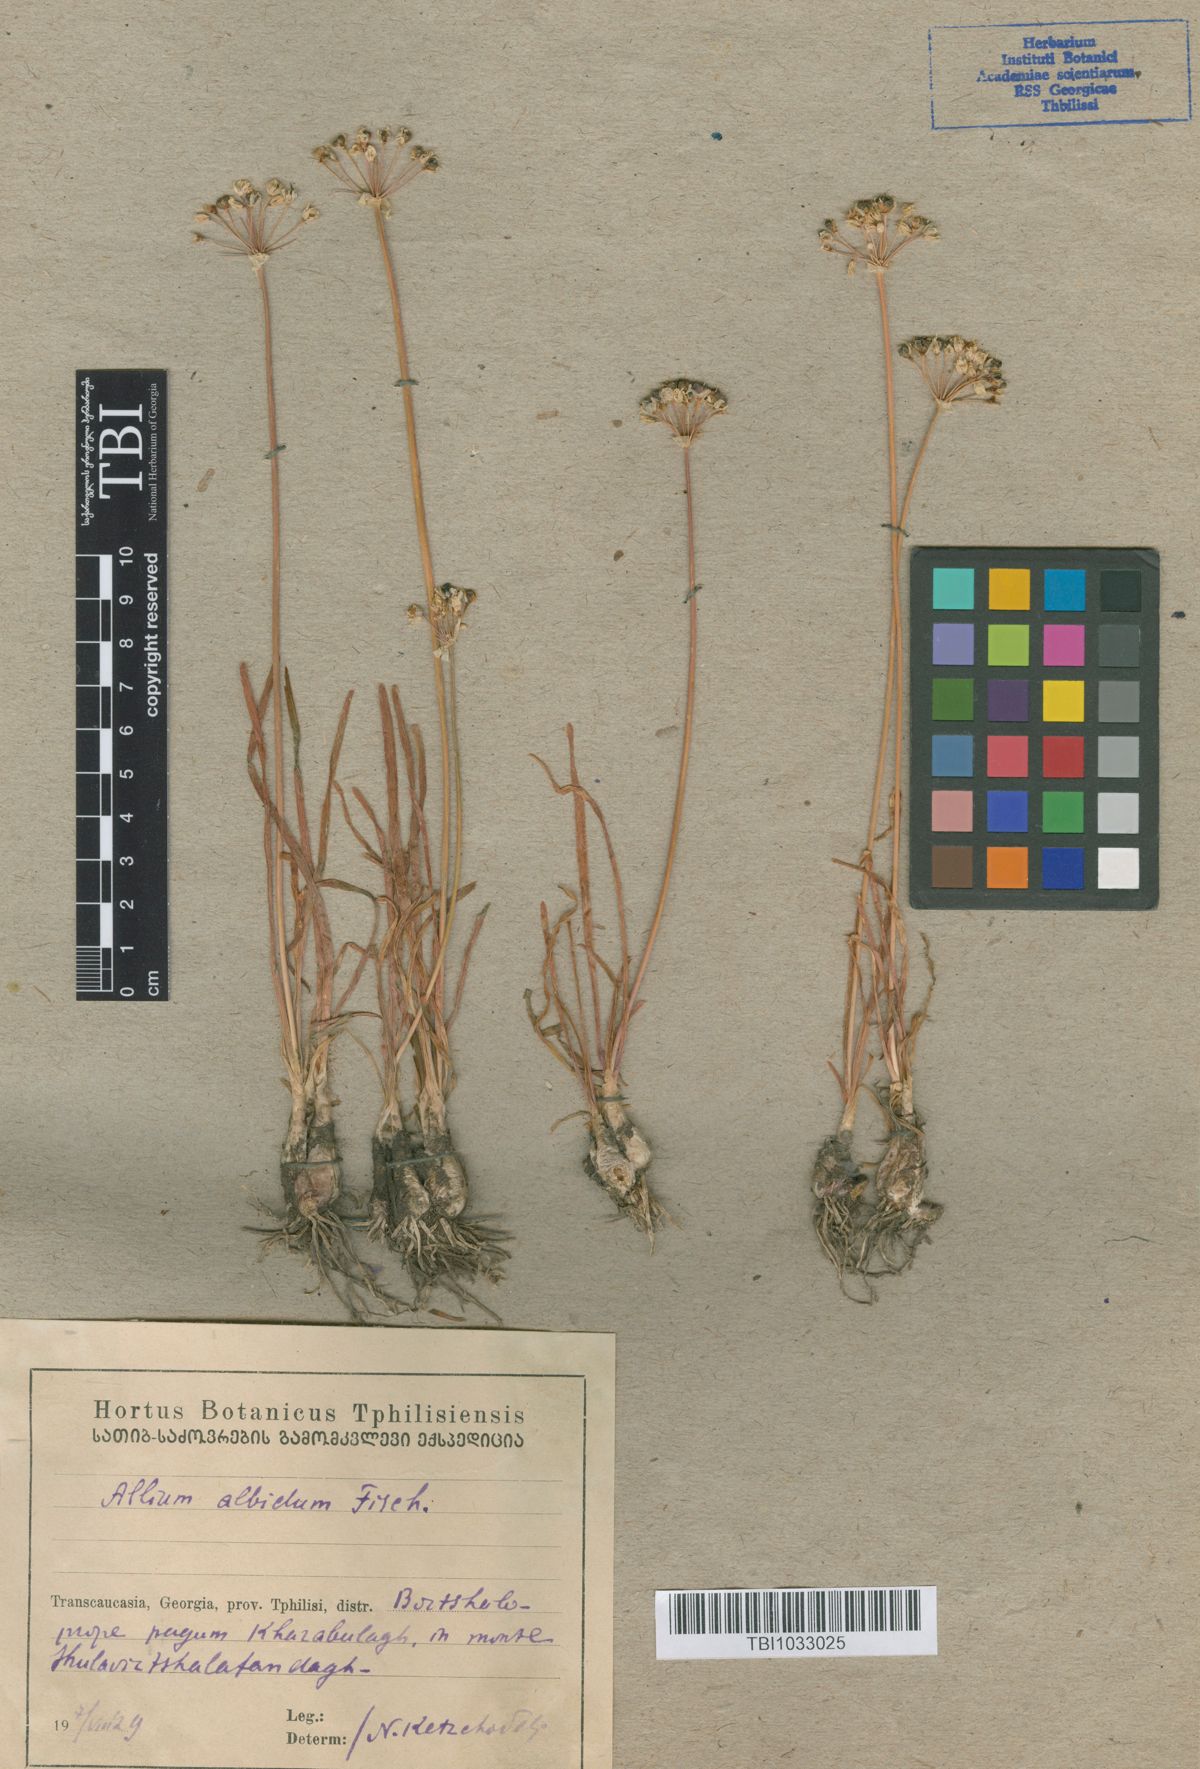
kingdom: Plantae
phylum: Tracheophyta
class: Liliopsida
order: Asparagales
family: Amaryllidaceae
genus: Allium
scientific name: Allium denudatum
